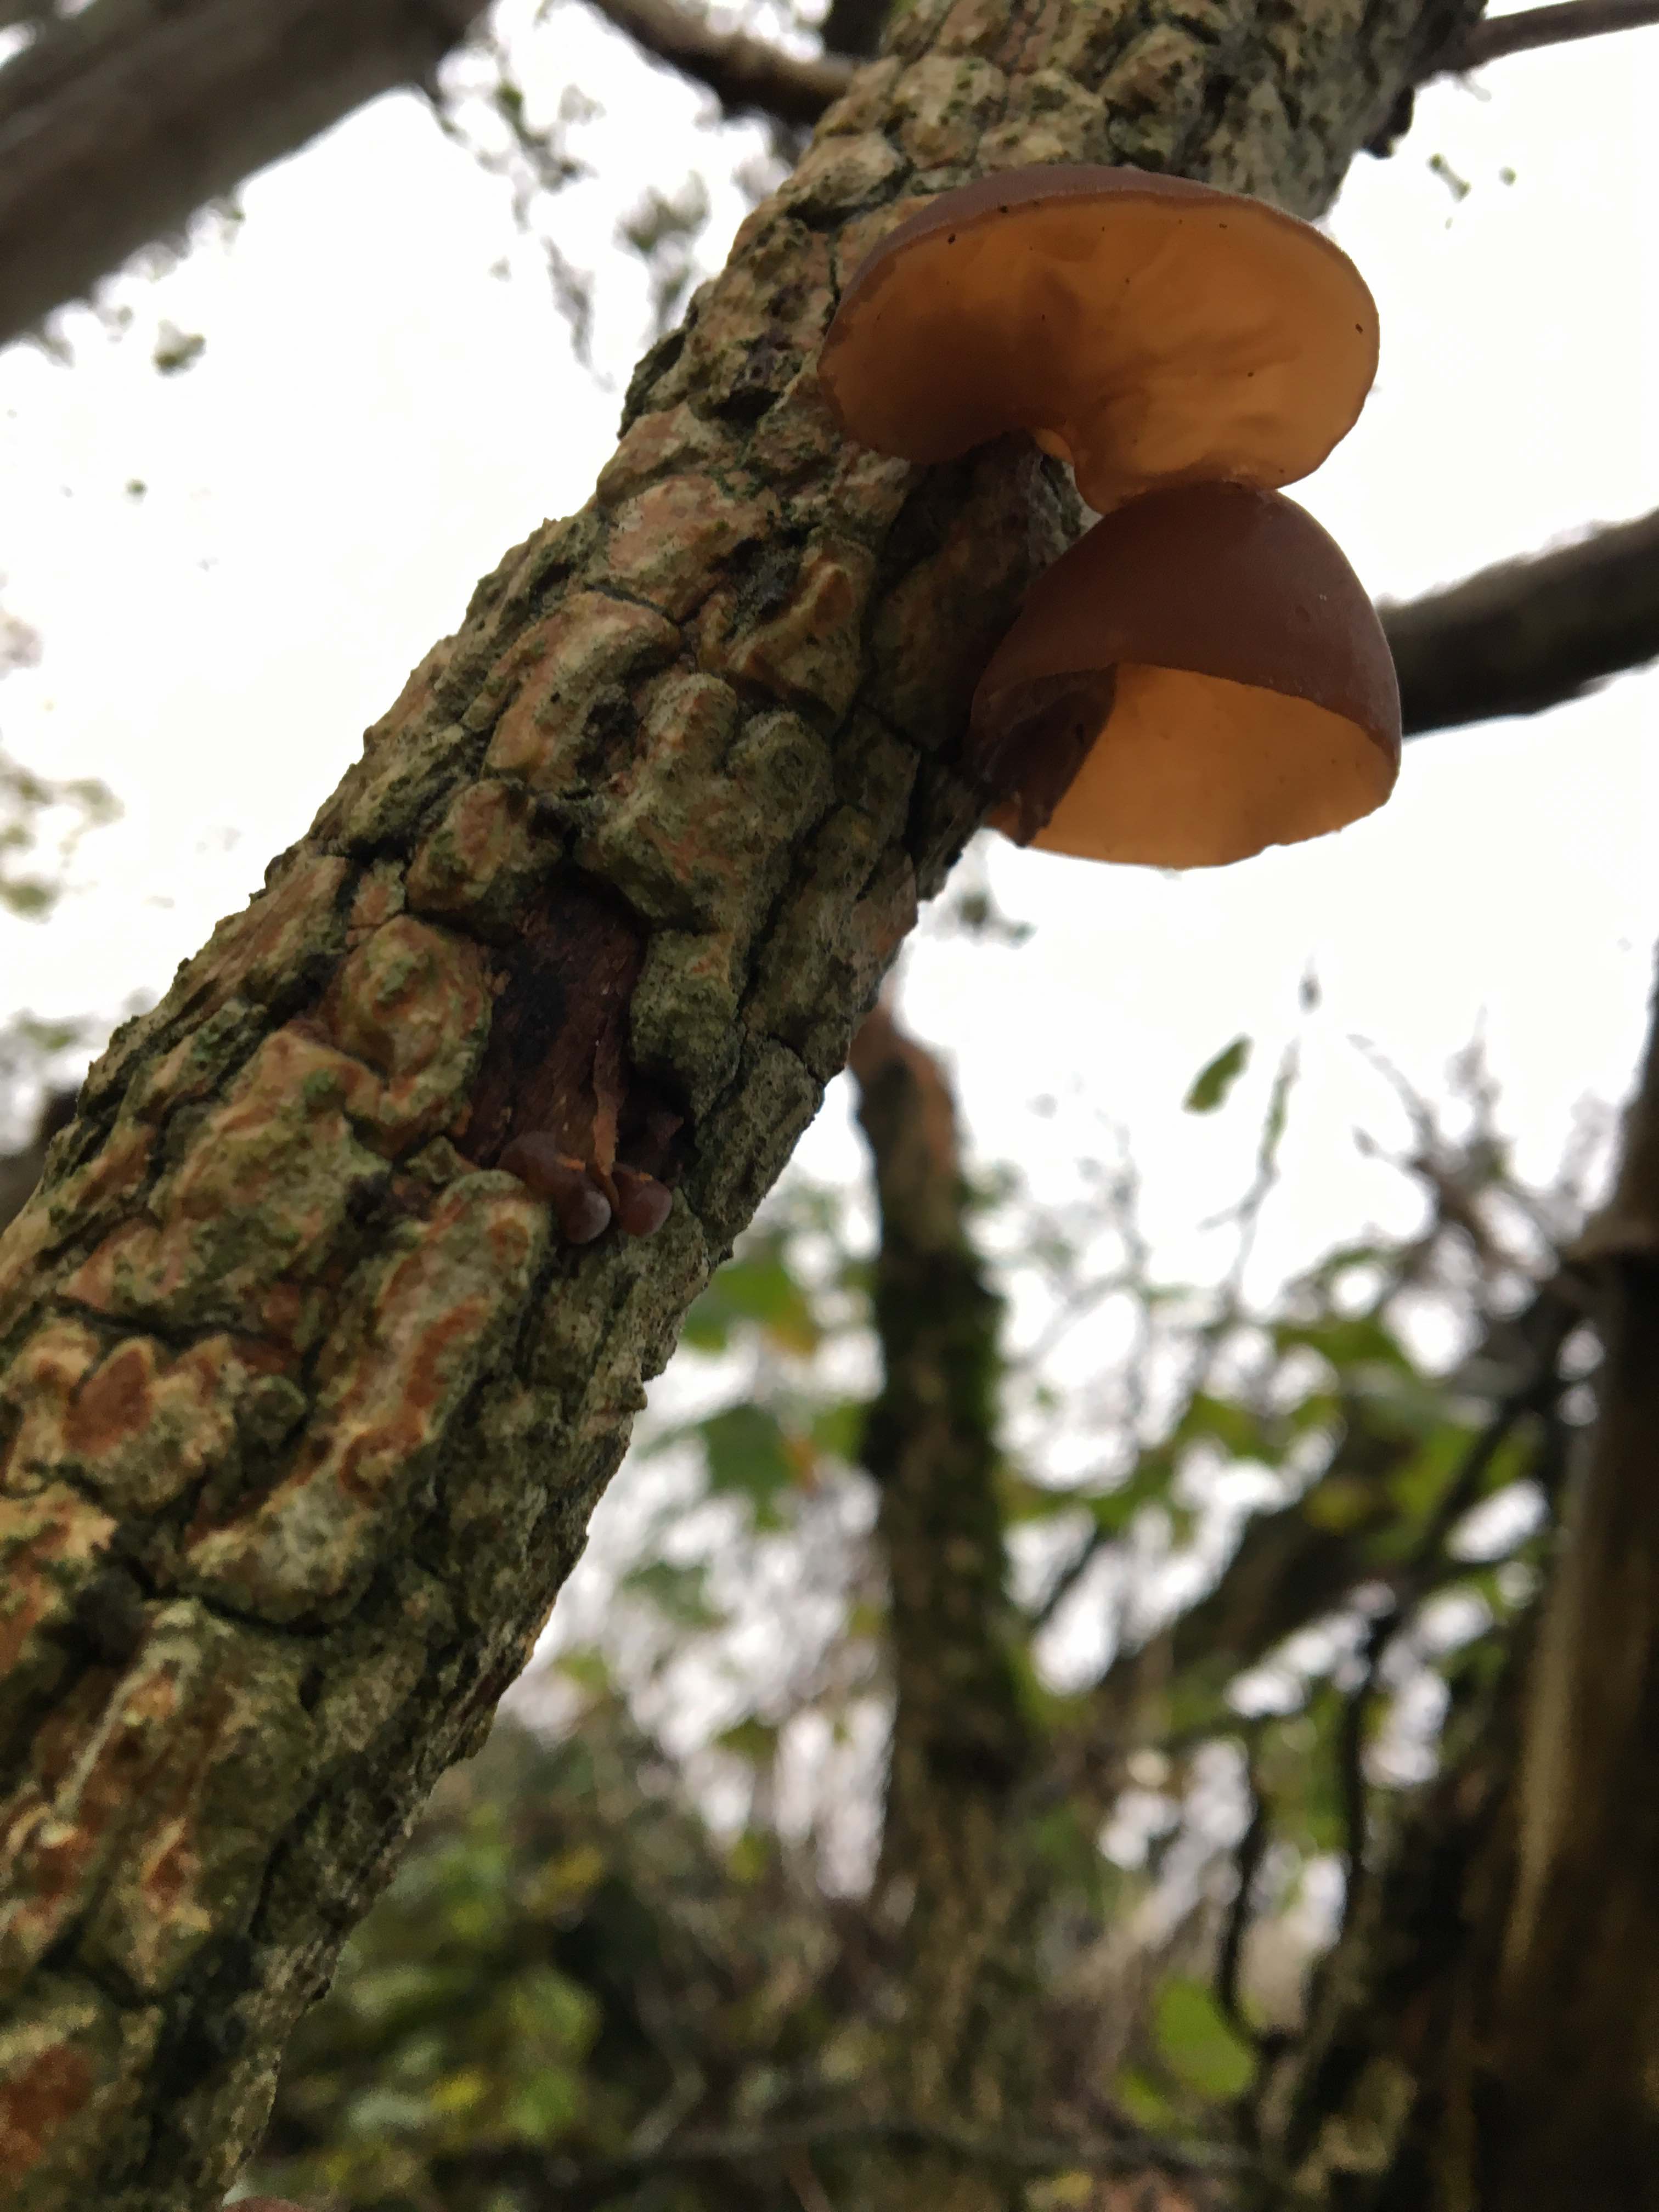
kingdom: Fungi
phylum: Basidiomycota
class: Agaricomycetes
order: Auriculariales
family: Auriculariaceae
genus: Auricularia
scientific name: Auricularia auricula-judae
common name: almindelig judasøre
